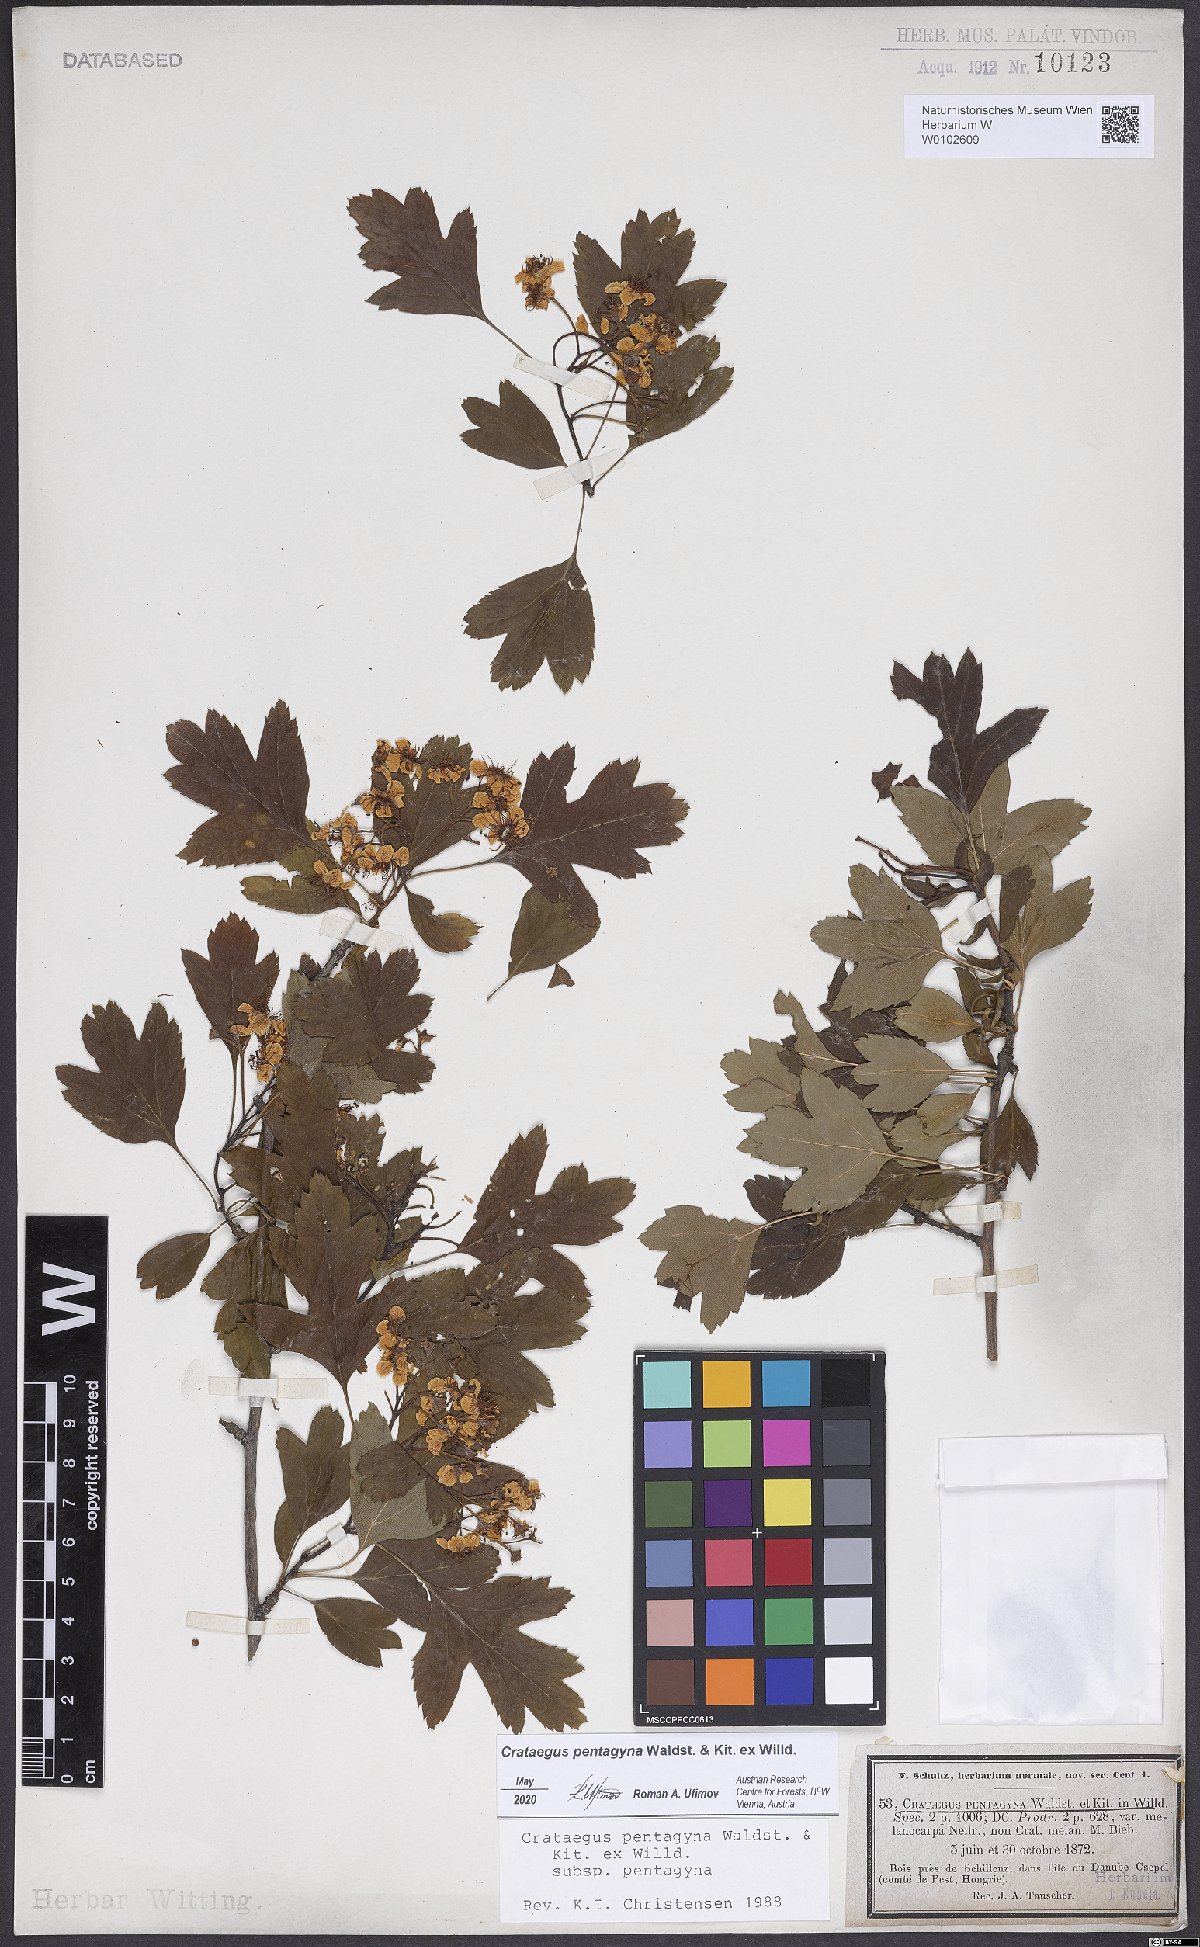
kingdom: Plantae
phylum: Tracheophyta
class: Magnoliopsida
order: Rosales
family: Rosaceae
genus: Crataegus
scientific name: Crataegus pentagyna
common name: Small-flowered black hawthorn
